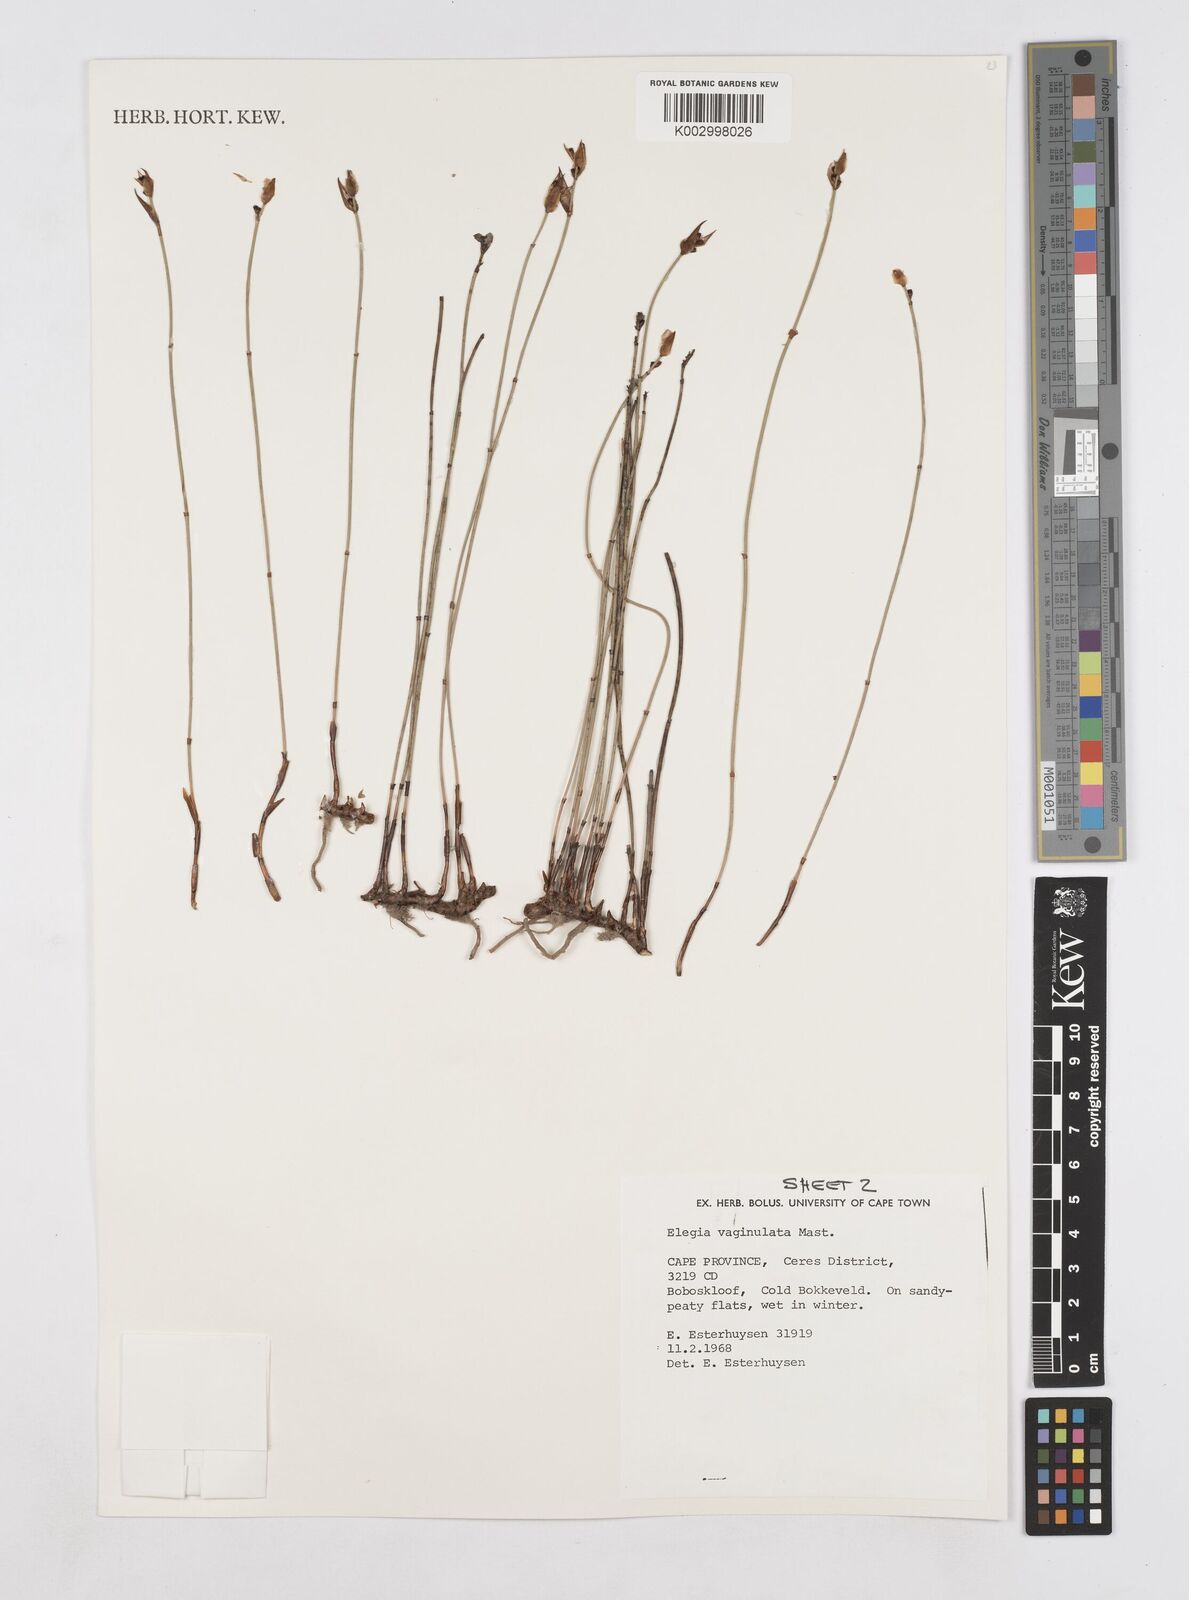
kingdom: Plantae
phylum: Tracheophyta
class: Liliopsida
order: Poales
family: Restionaceae
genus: Elegia
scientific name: Elegia vaginulata
